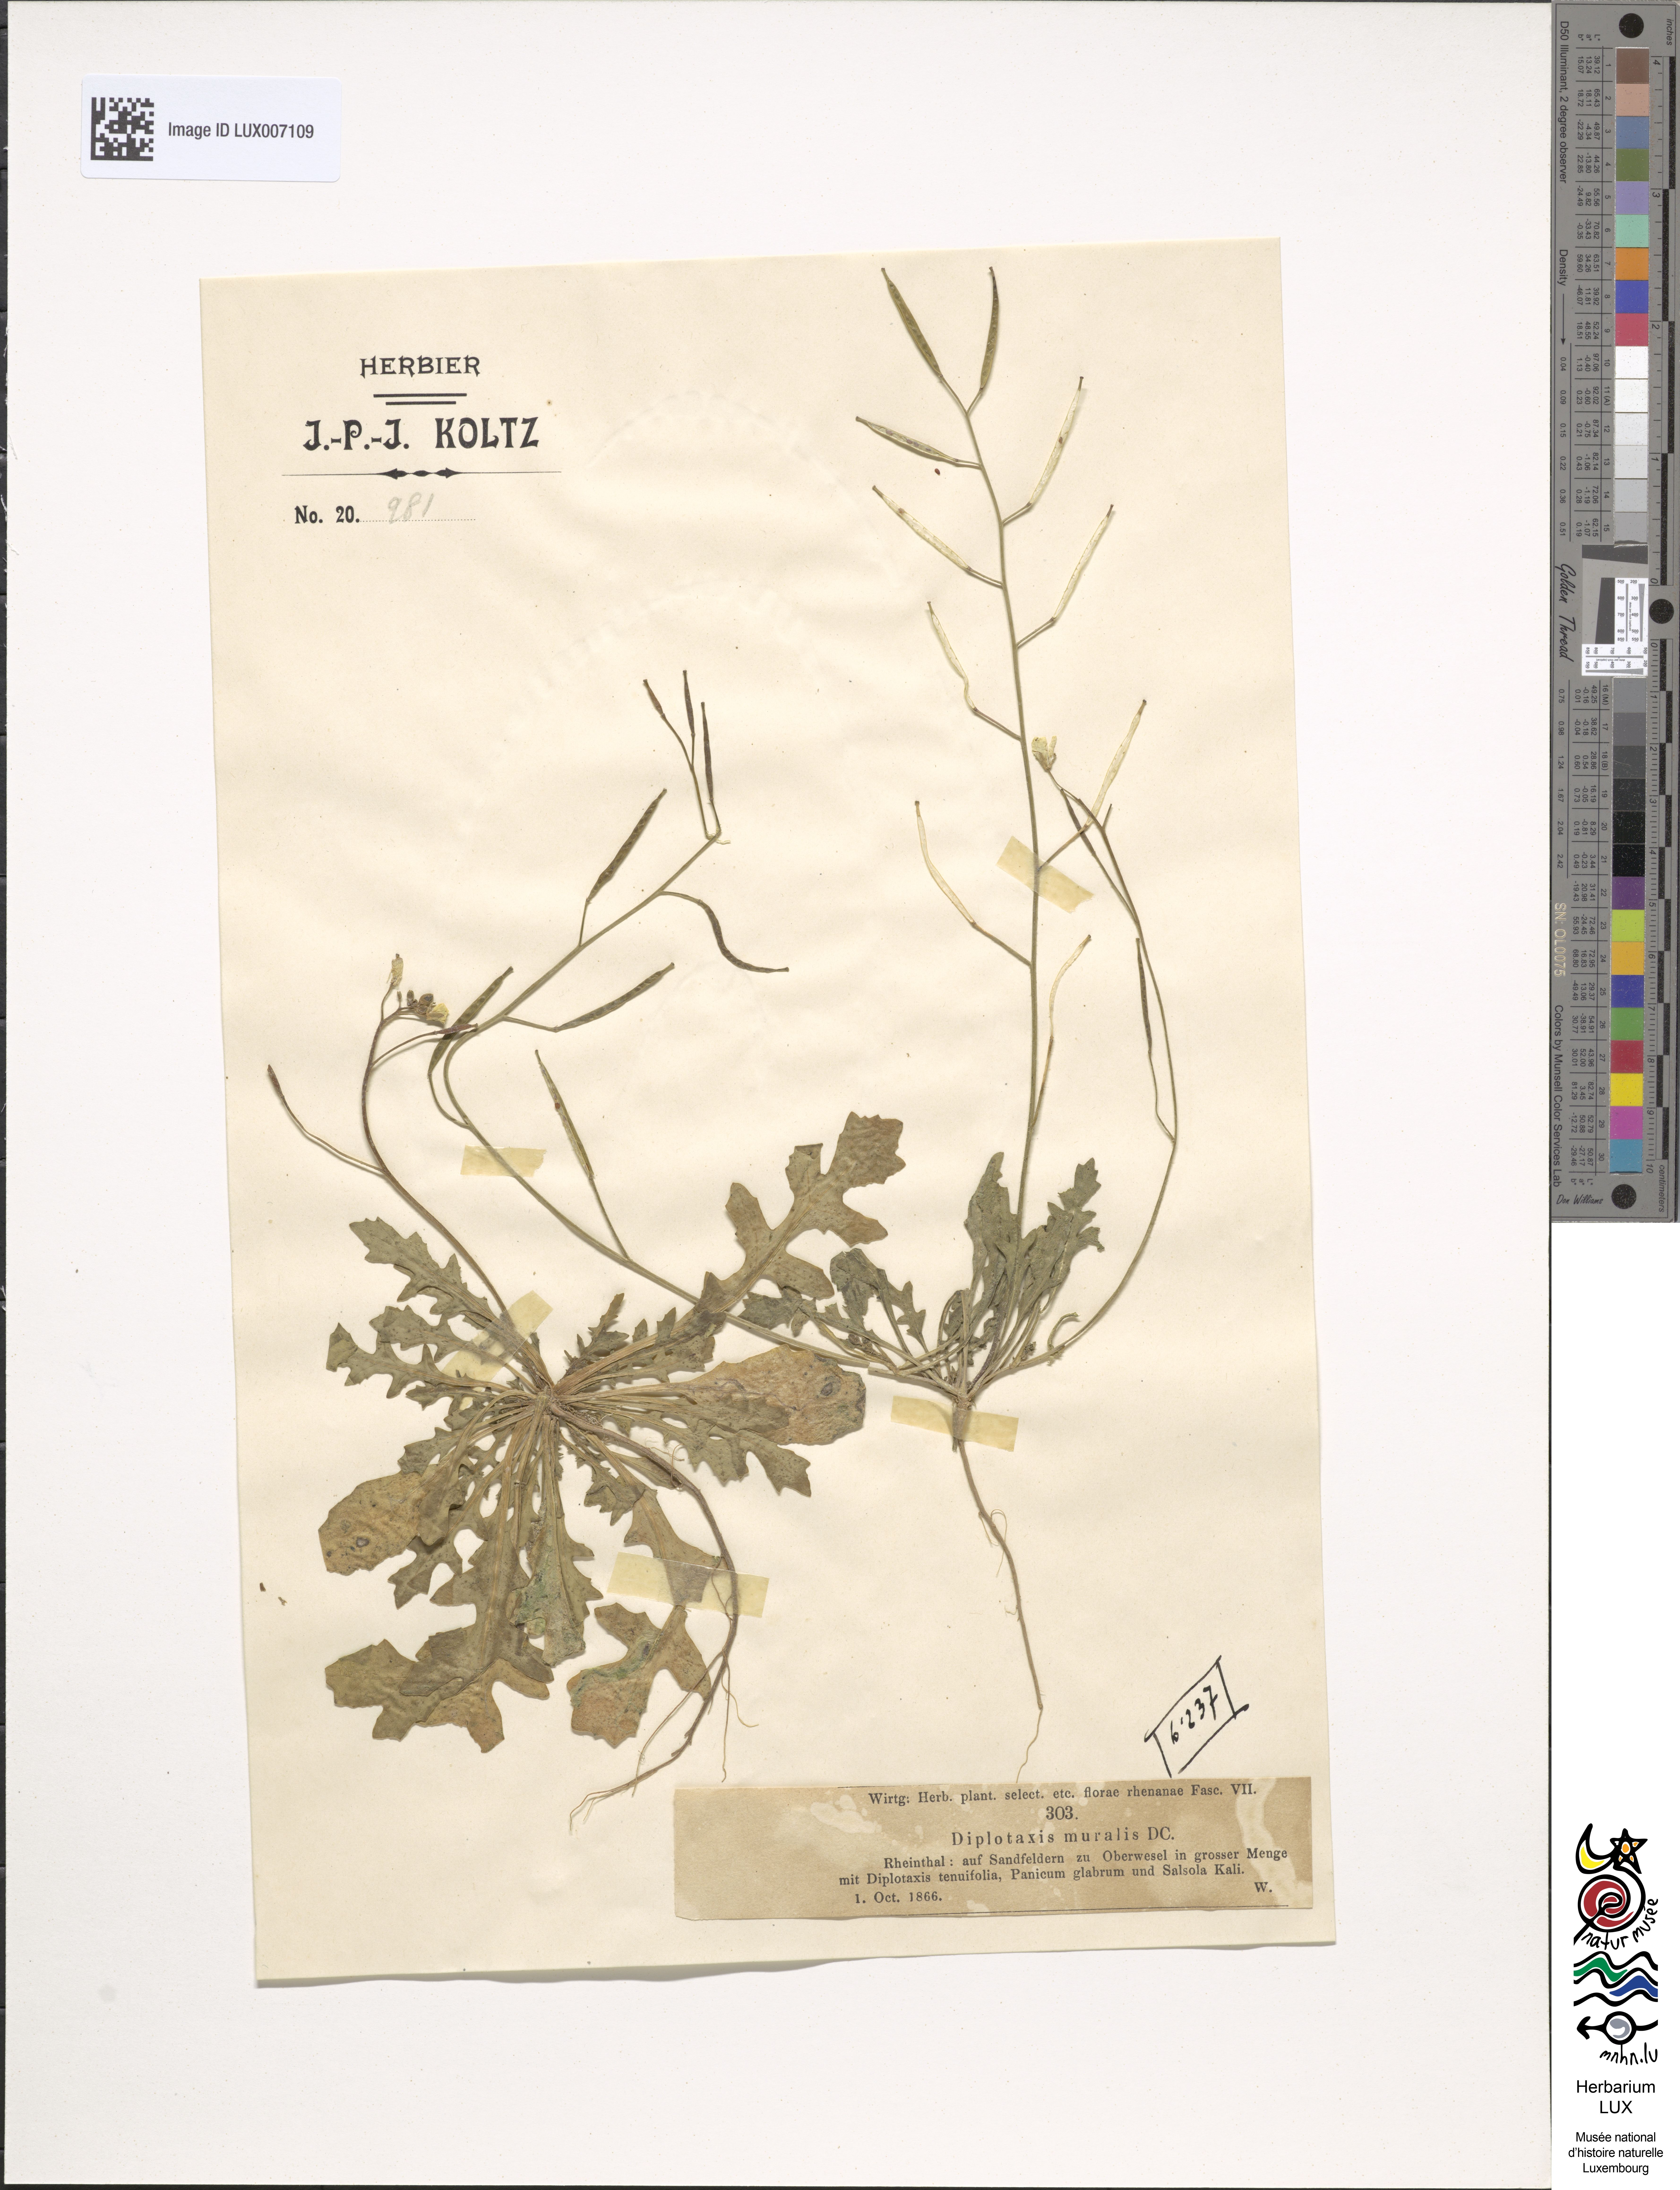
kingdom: Plantae
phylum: Tracheophyta
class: Magnoliopsida
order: Brassicales
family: Brassicaceae
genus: Diplotaxis
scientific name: Diplotaxis muralis
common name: Annual wall-rocket
